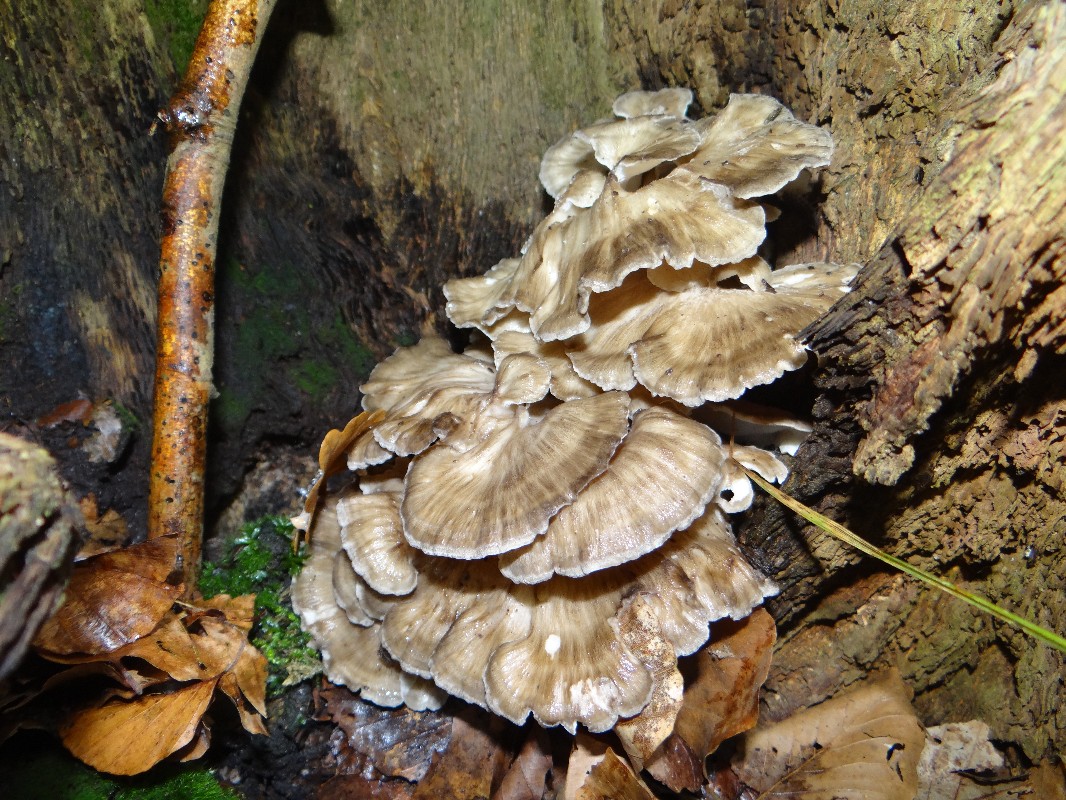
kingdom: Fungi
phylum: Basidiomycota
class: Agaricomycetes
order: Polyporales
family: Grifolaceae
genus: Grifola
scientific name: Grifola frondosa
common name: tueporesvamp
